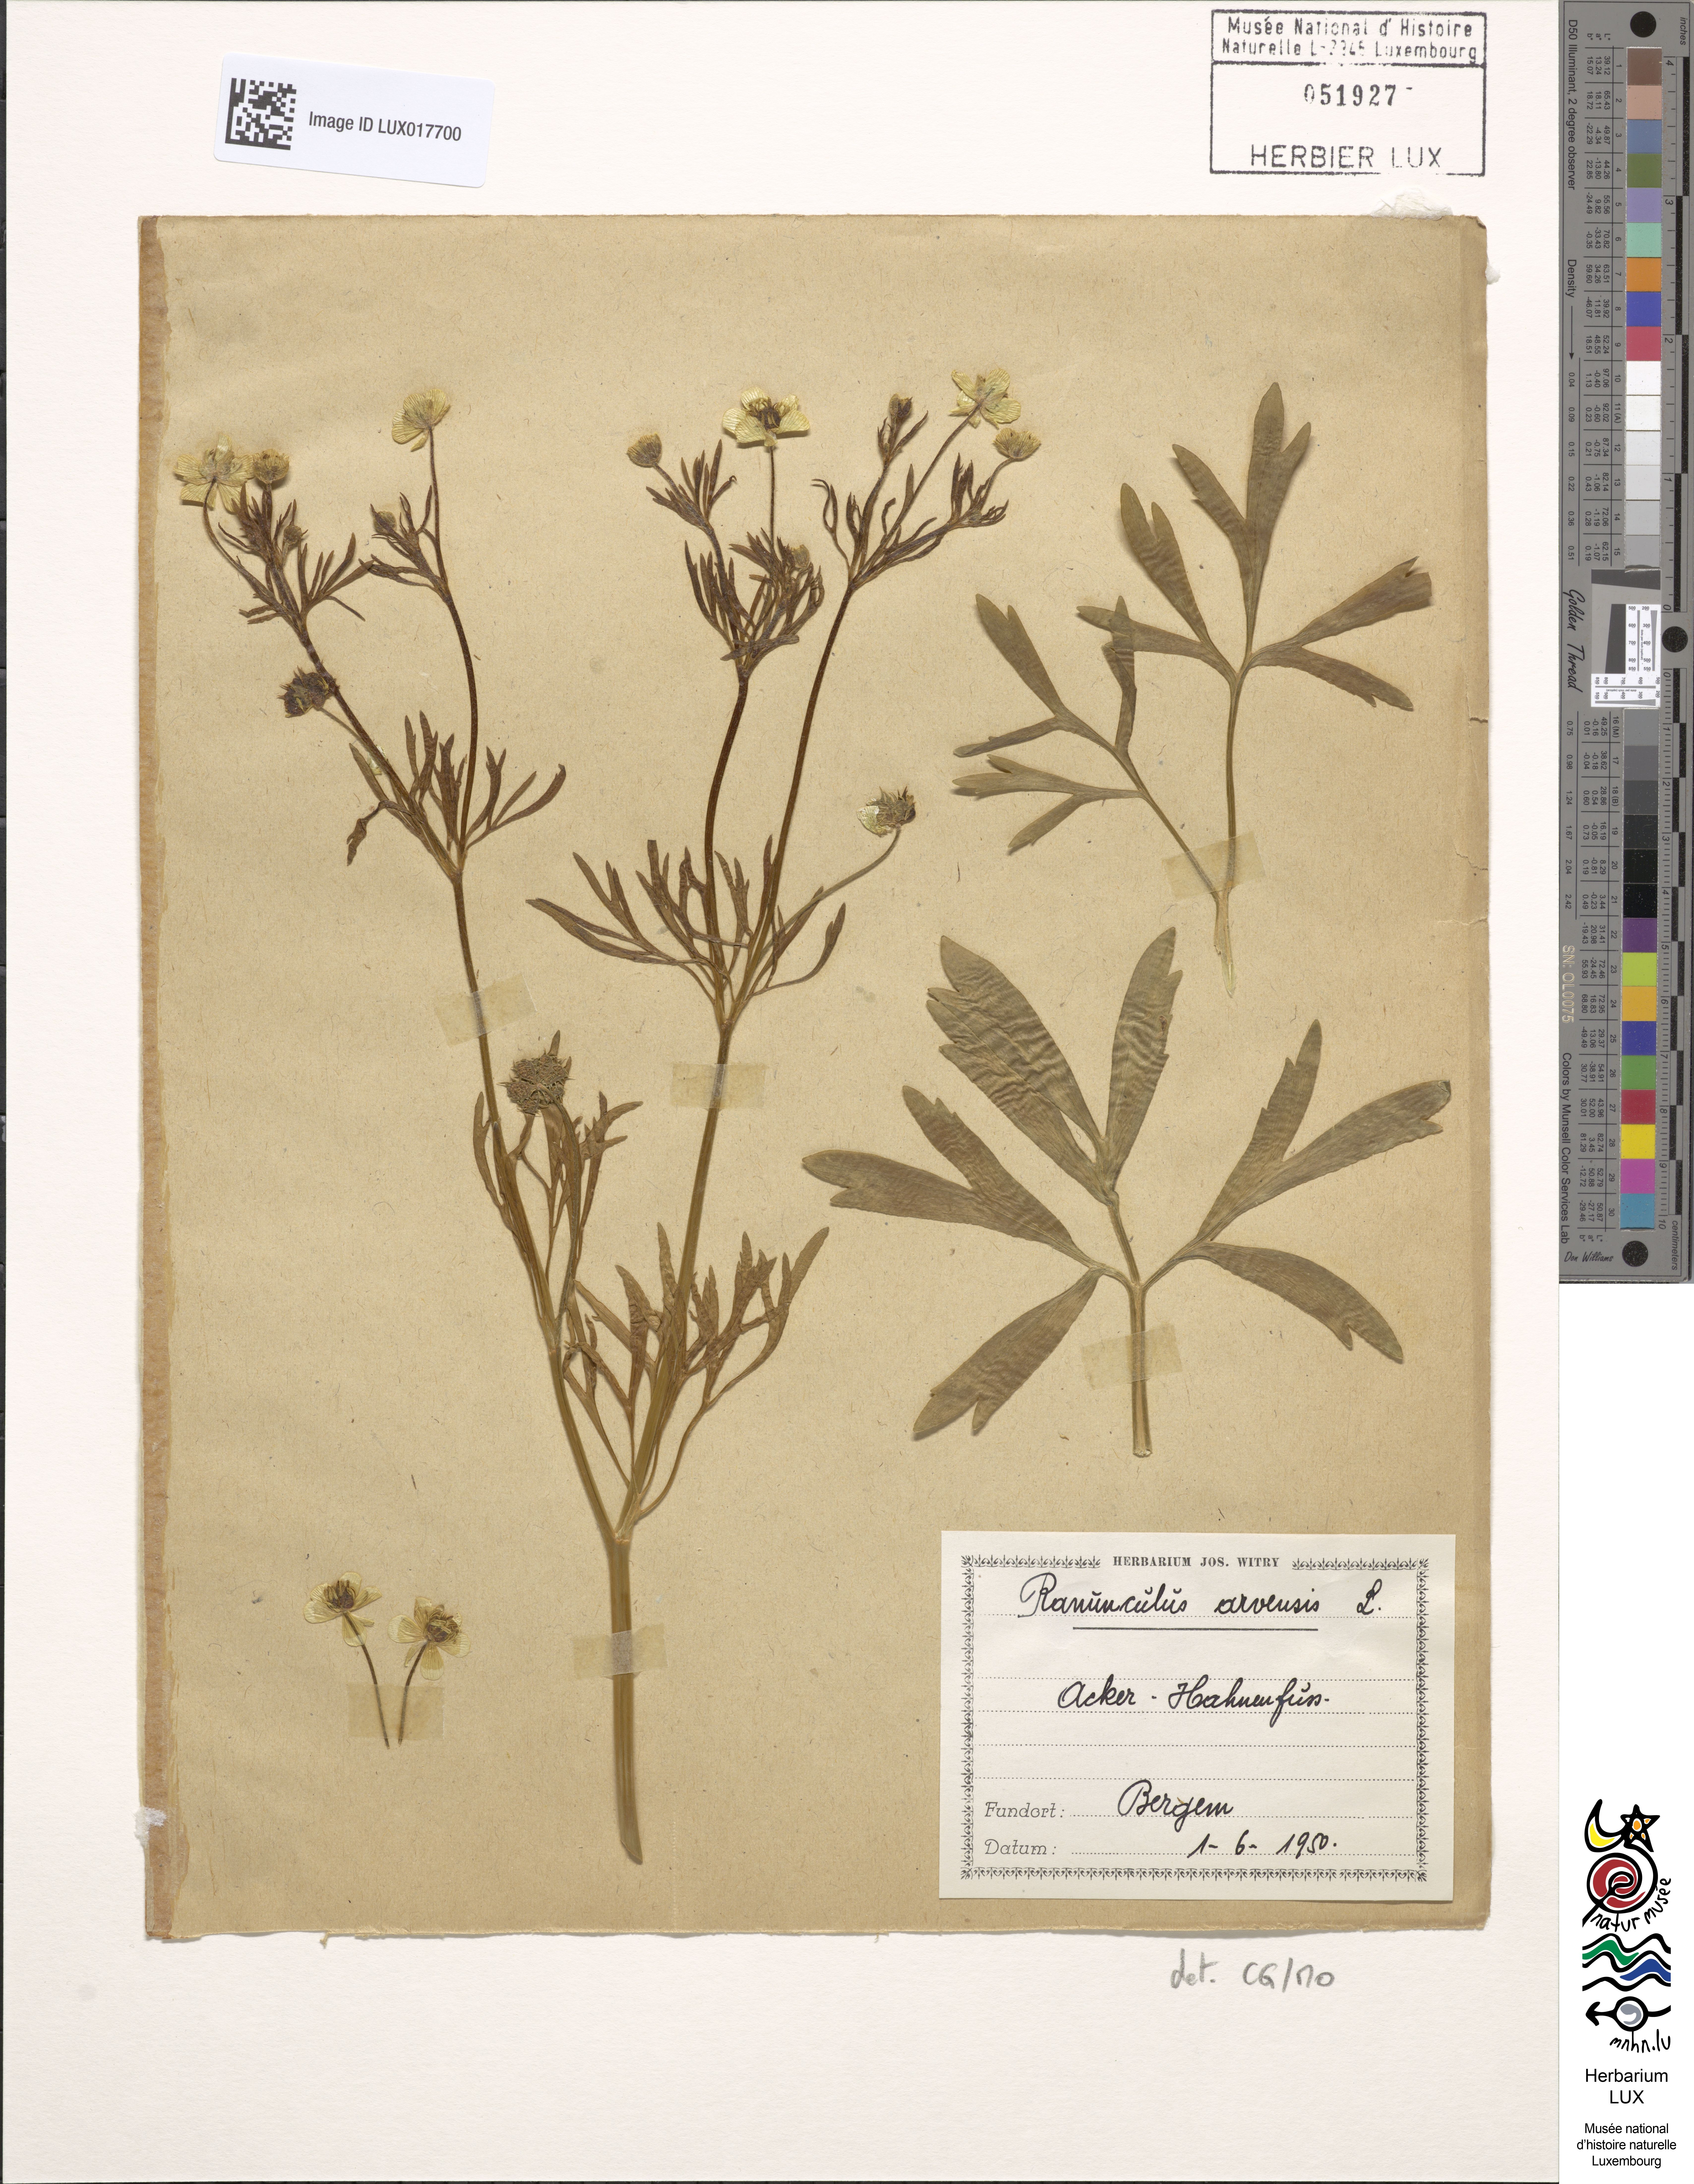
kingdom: Plantae
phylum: Tracheophyta
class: Magnoliopsida
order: Ranunculales
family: Ranunculaceae
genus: Ranunculus
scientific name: Ranunculus arvensis
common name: Corn buttercup
